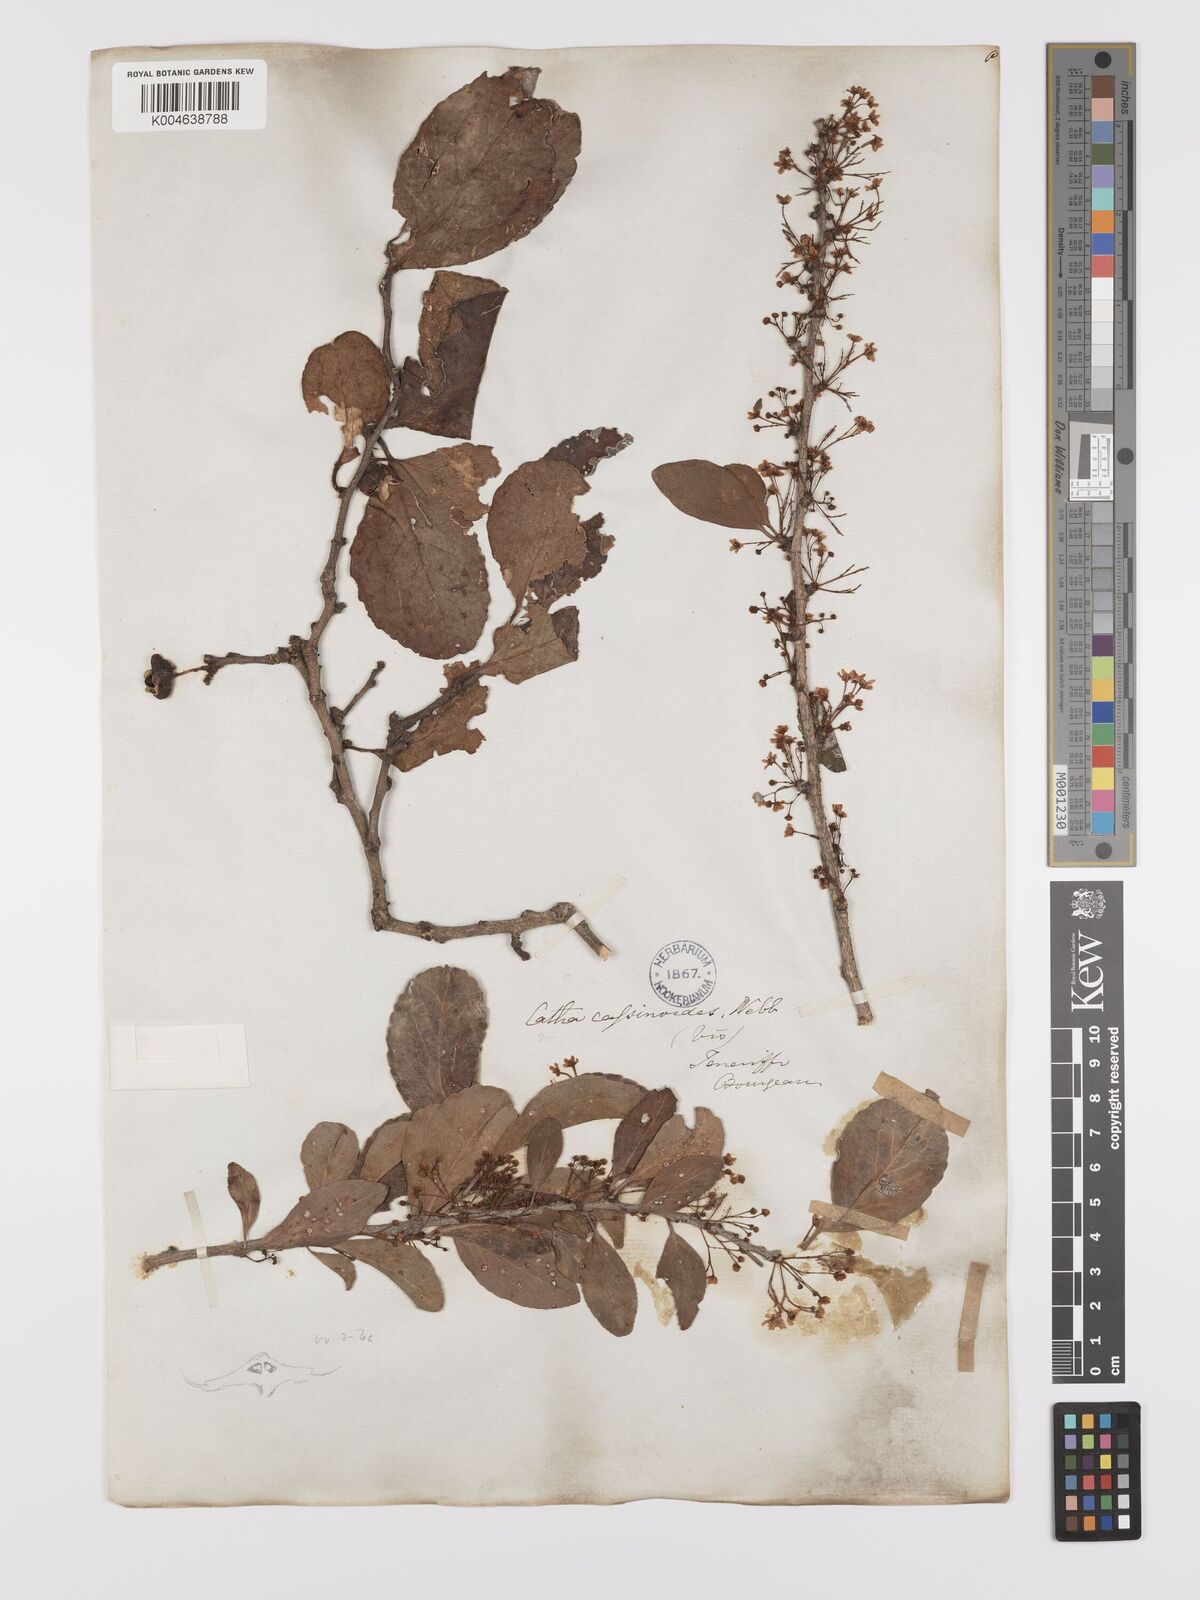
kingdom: Plantae
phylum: Tracheophyta
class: Magnoliopsida
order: Celastrales
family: Celastraceae
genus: Gymnosporia
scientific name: Gymnosporia cassinoides
